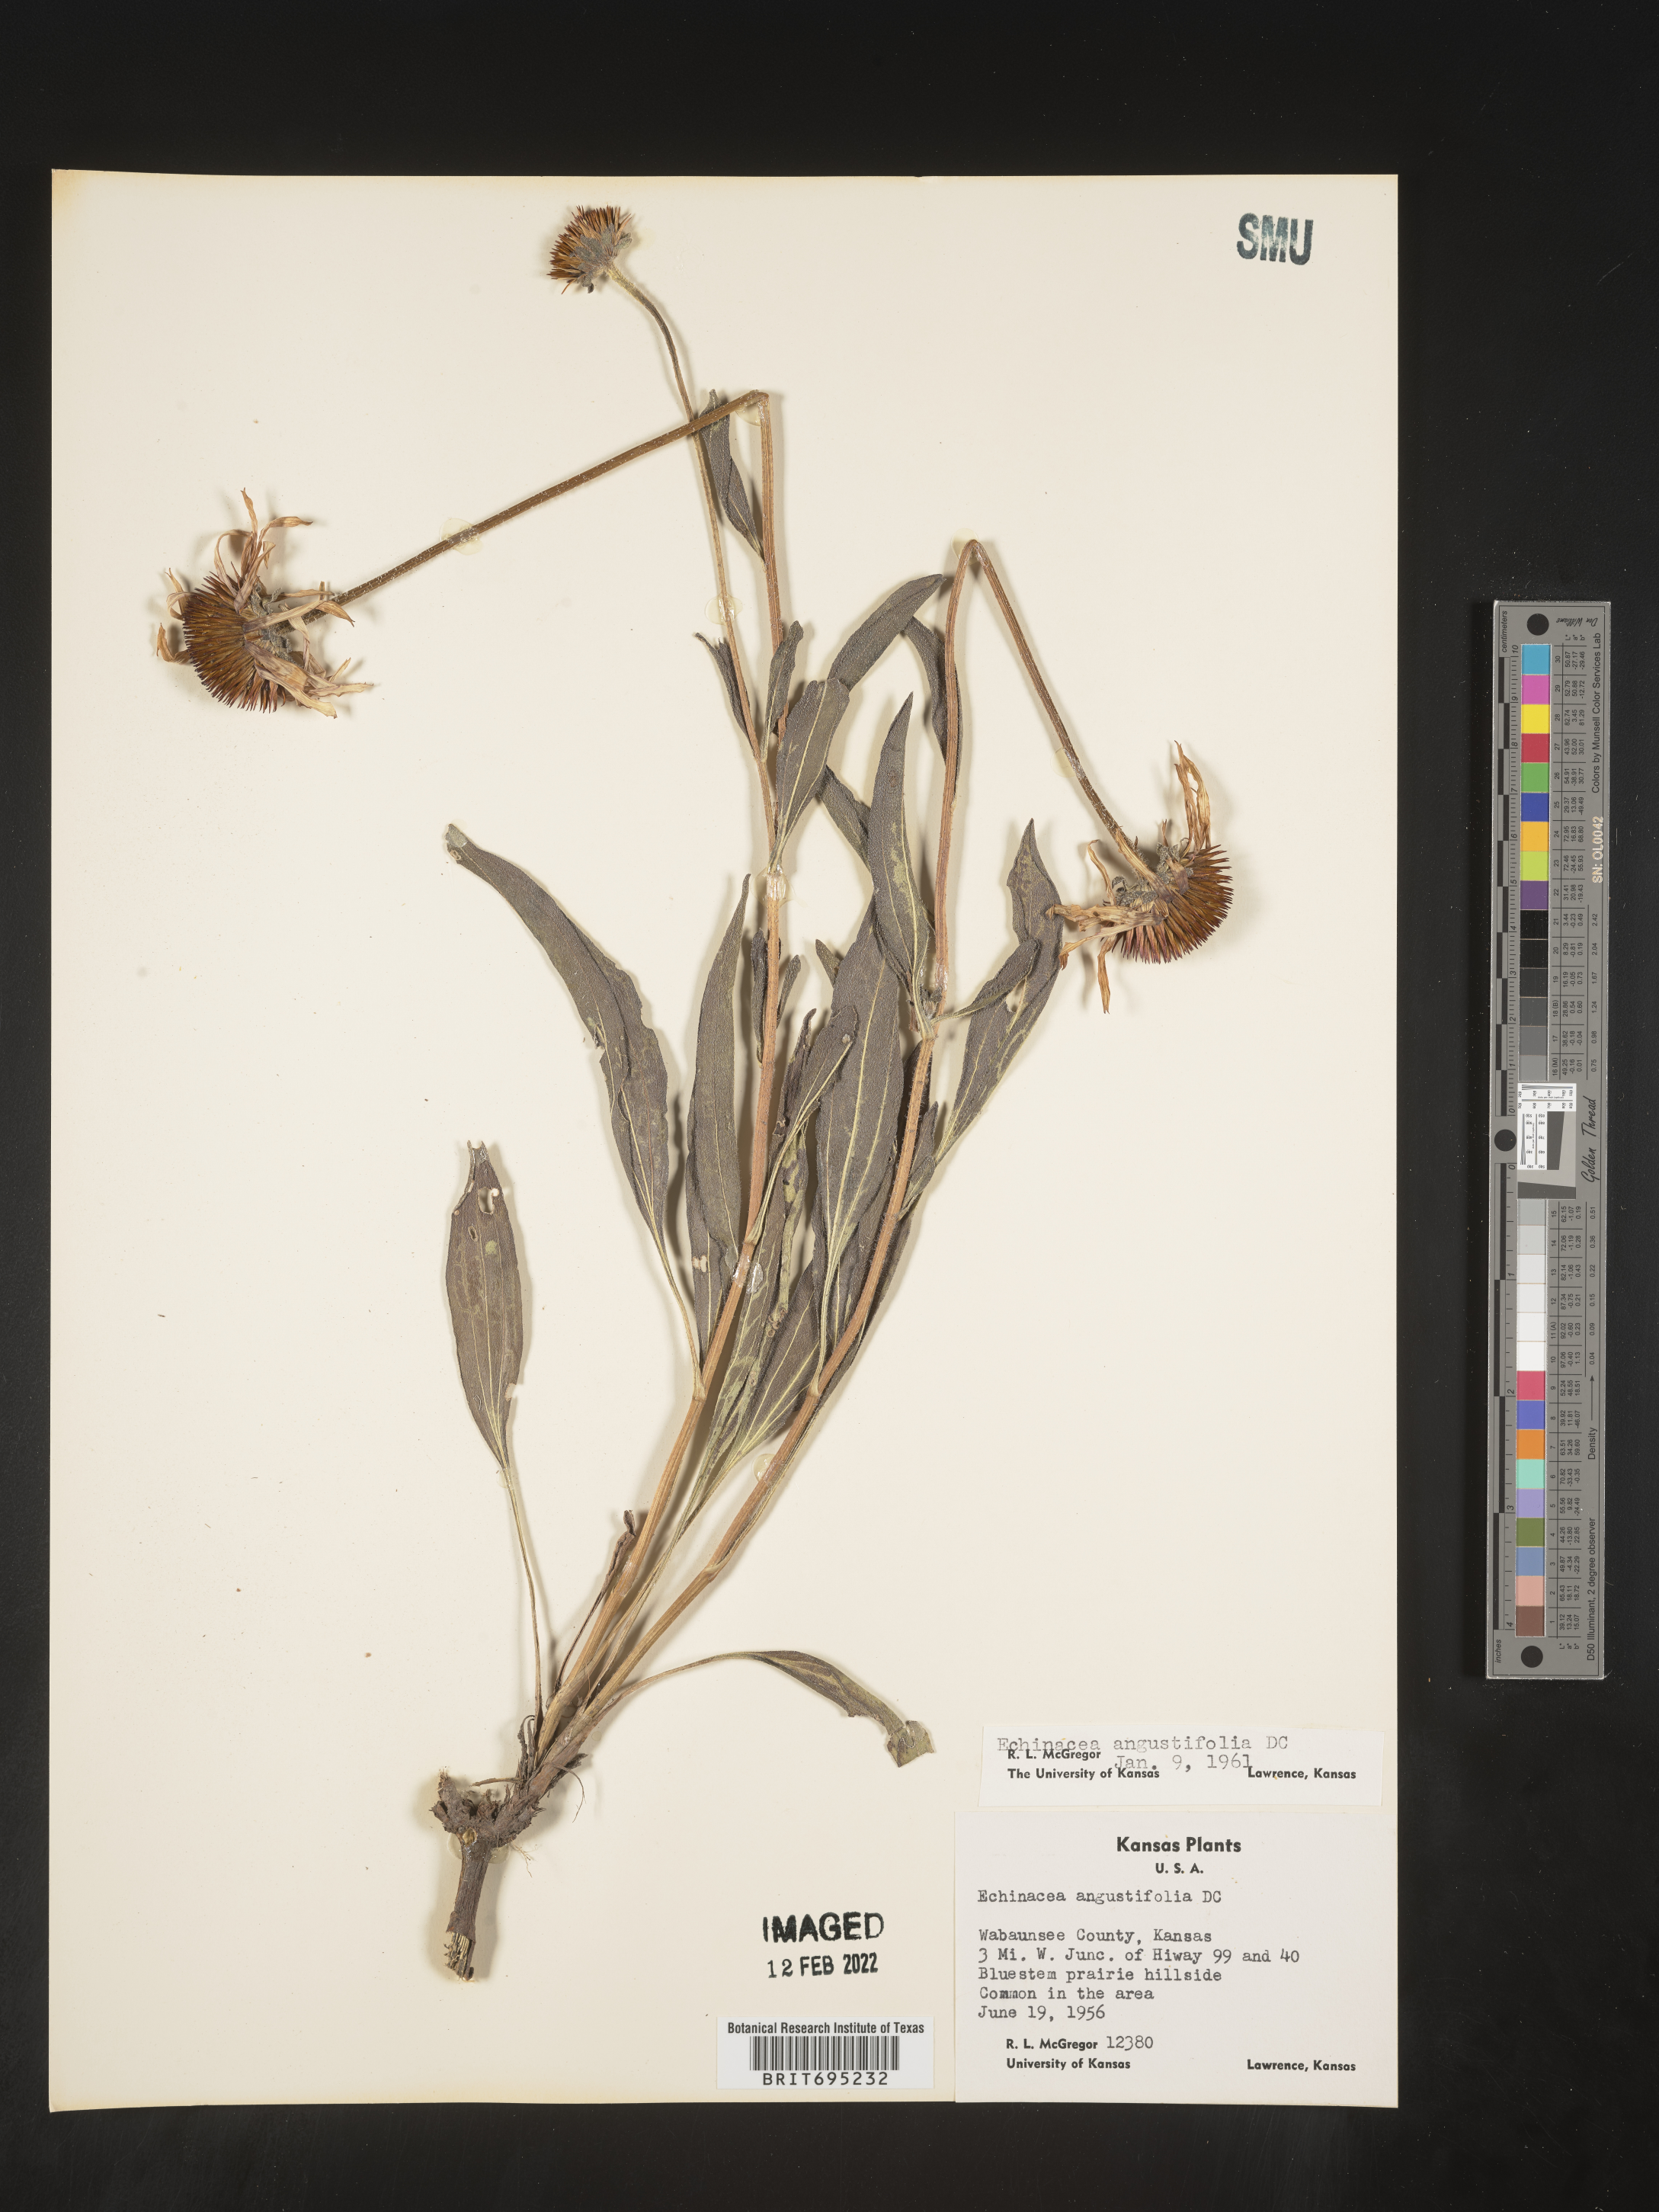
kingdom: Plantae
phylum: Tracheophyta
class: Magnoliopsida
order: Asterales
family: Asteraceae
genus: Echinacea
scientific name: Echinacea angustifolia
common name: Black-sampson echinacea
